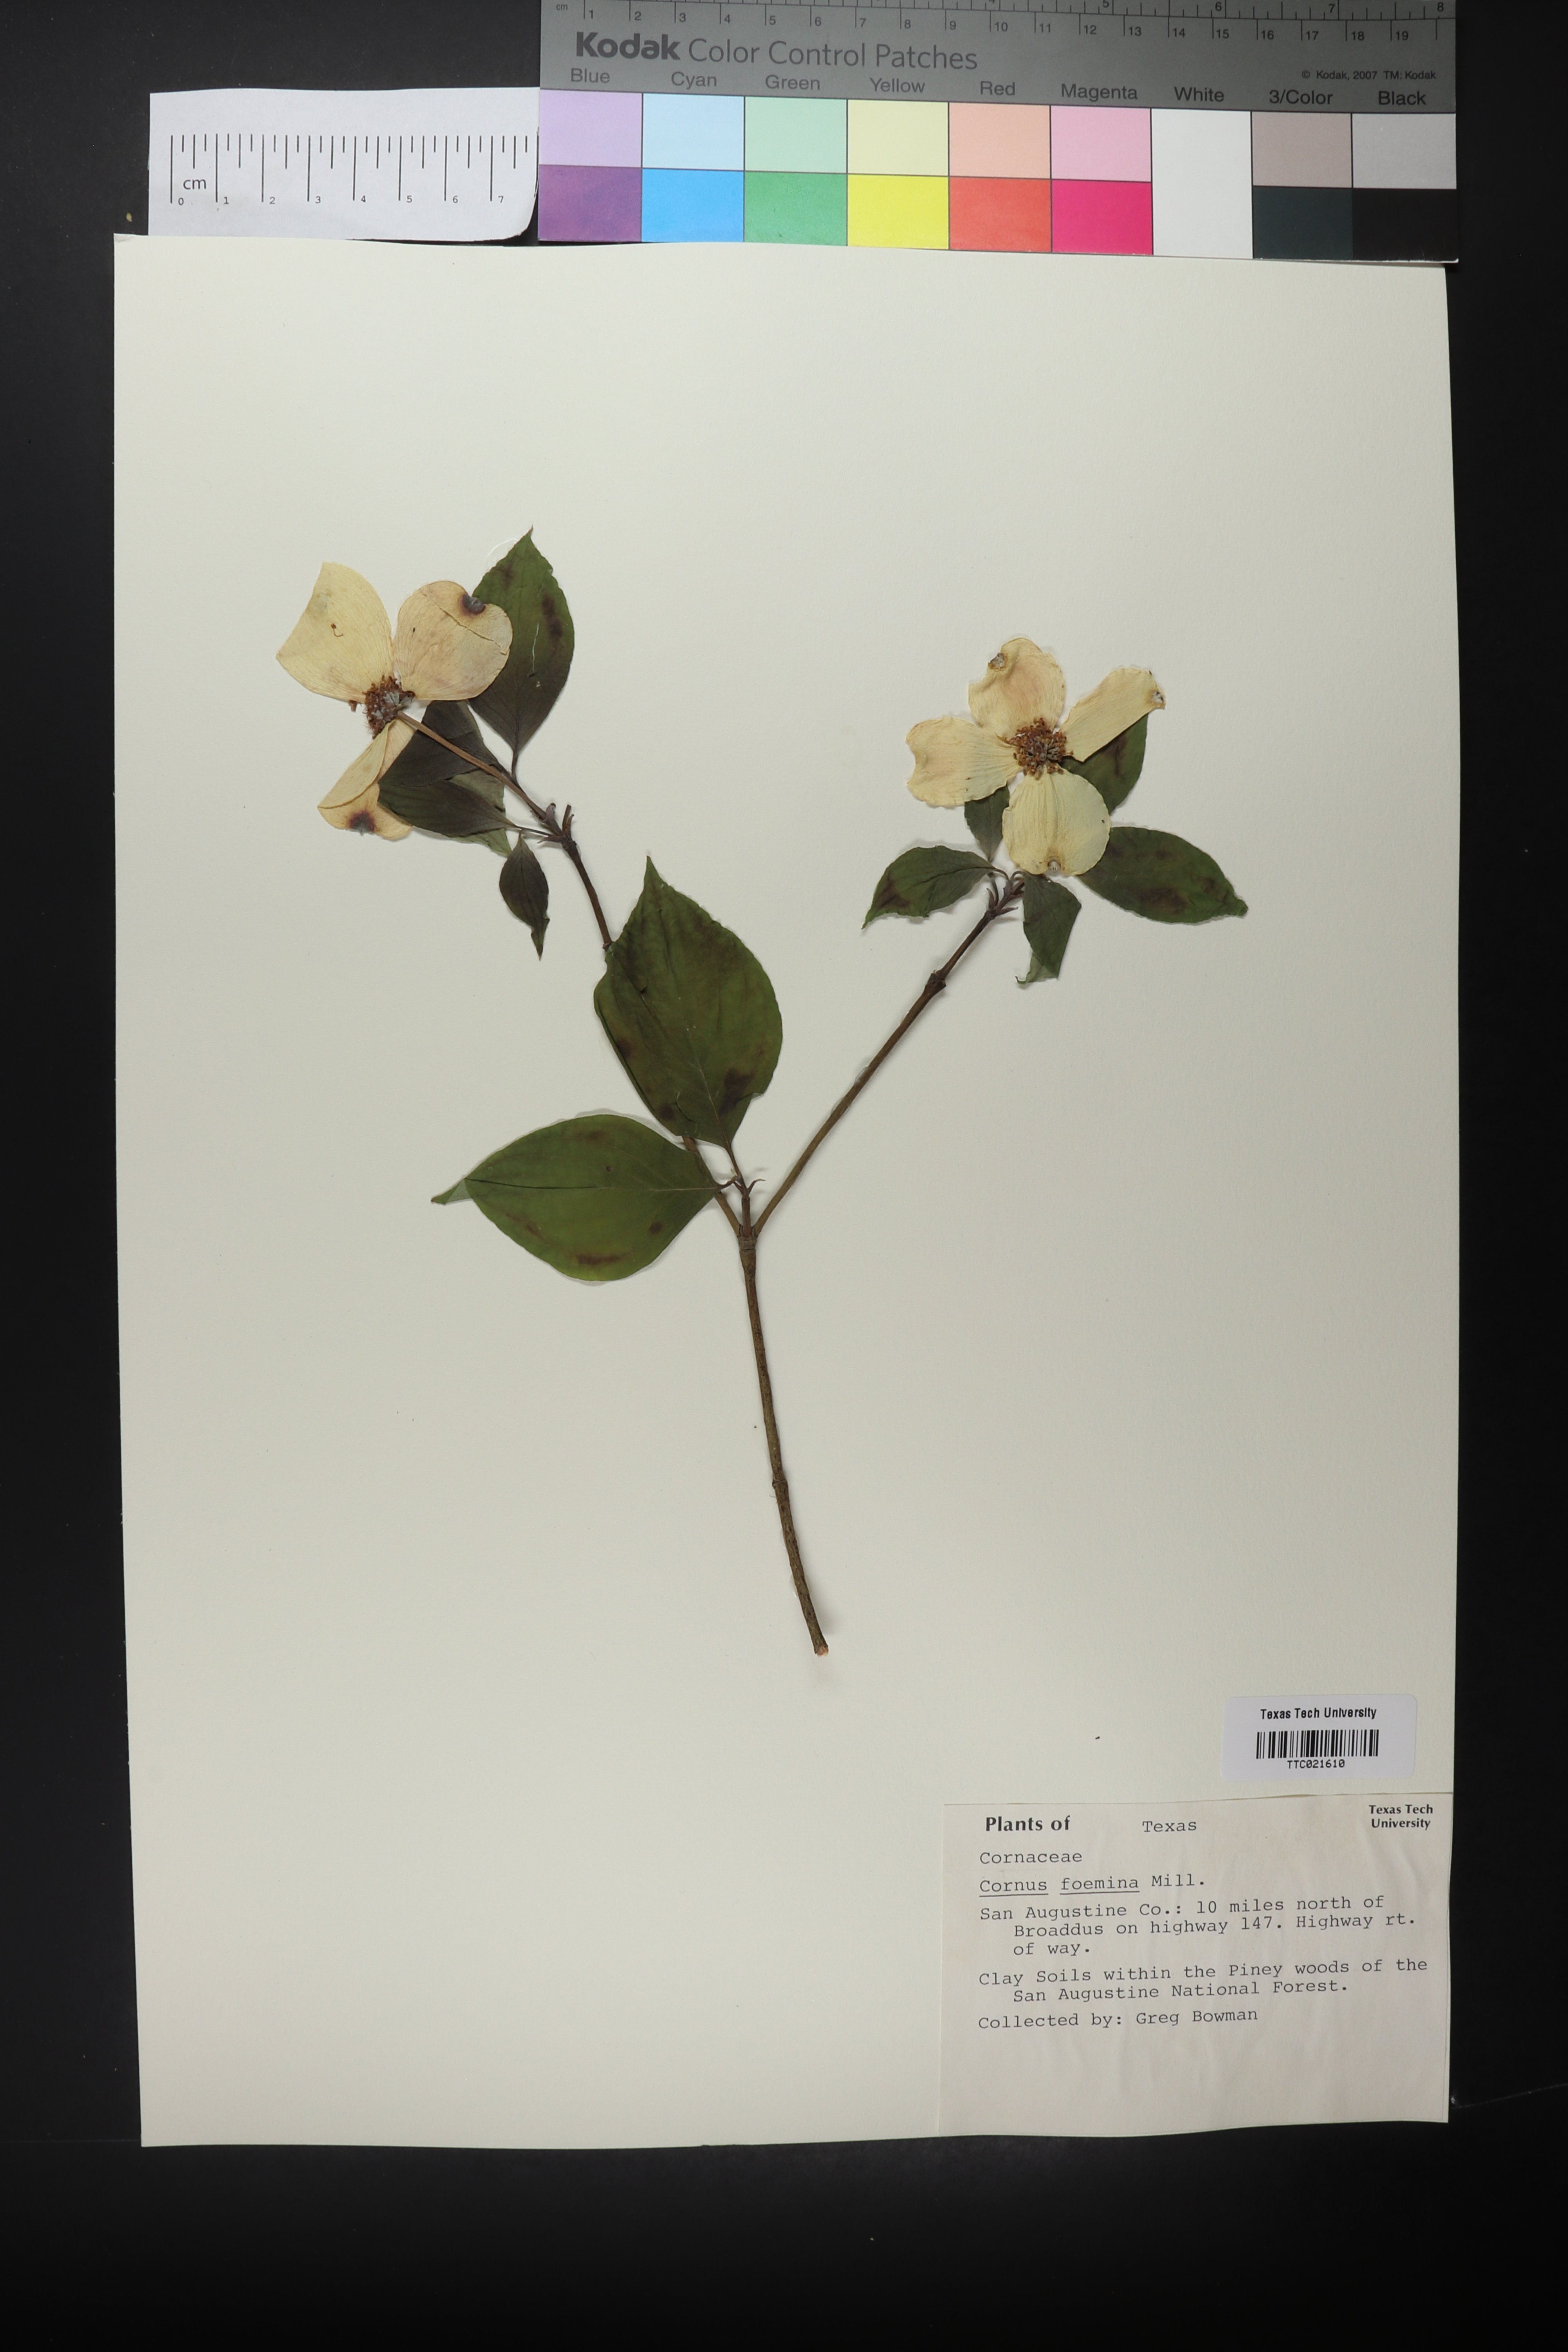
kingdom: Plantae
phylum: Tracheophyta
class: Magnoliopsida
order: Cornales
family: Cornaceae
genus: Cornus
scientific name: Cornus foemina
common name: Swamp dogwood
